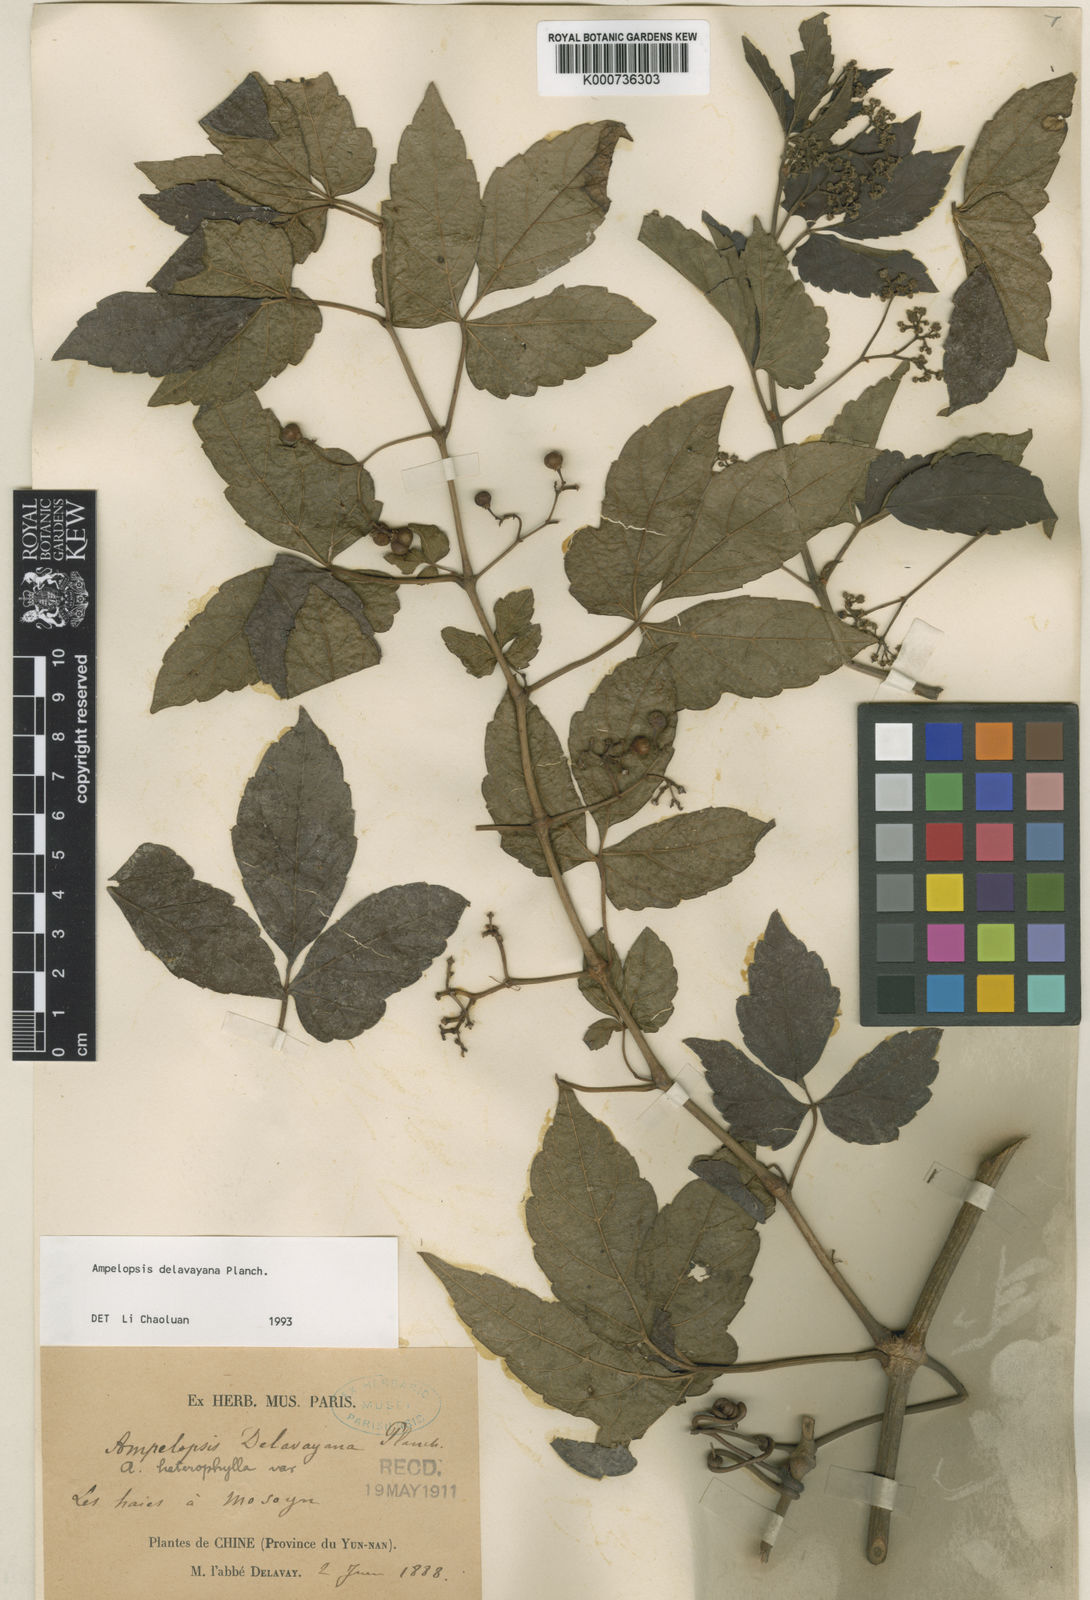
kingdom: Plantae
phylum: Tracheophyta
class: Magnoliopsida
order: Vitales
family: Vitaceae
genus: Ampelopsis
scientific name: Ampelopsis delavayana
